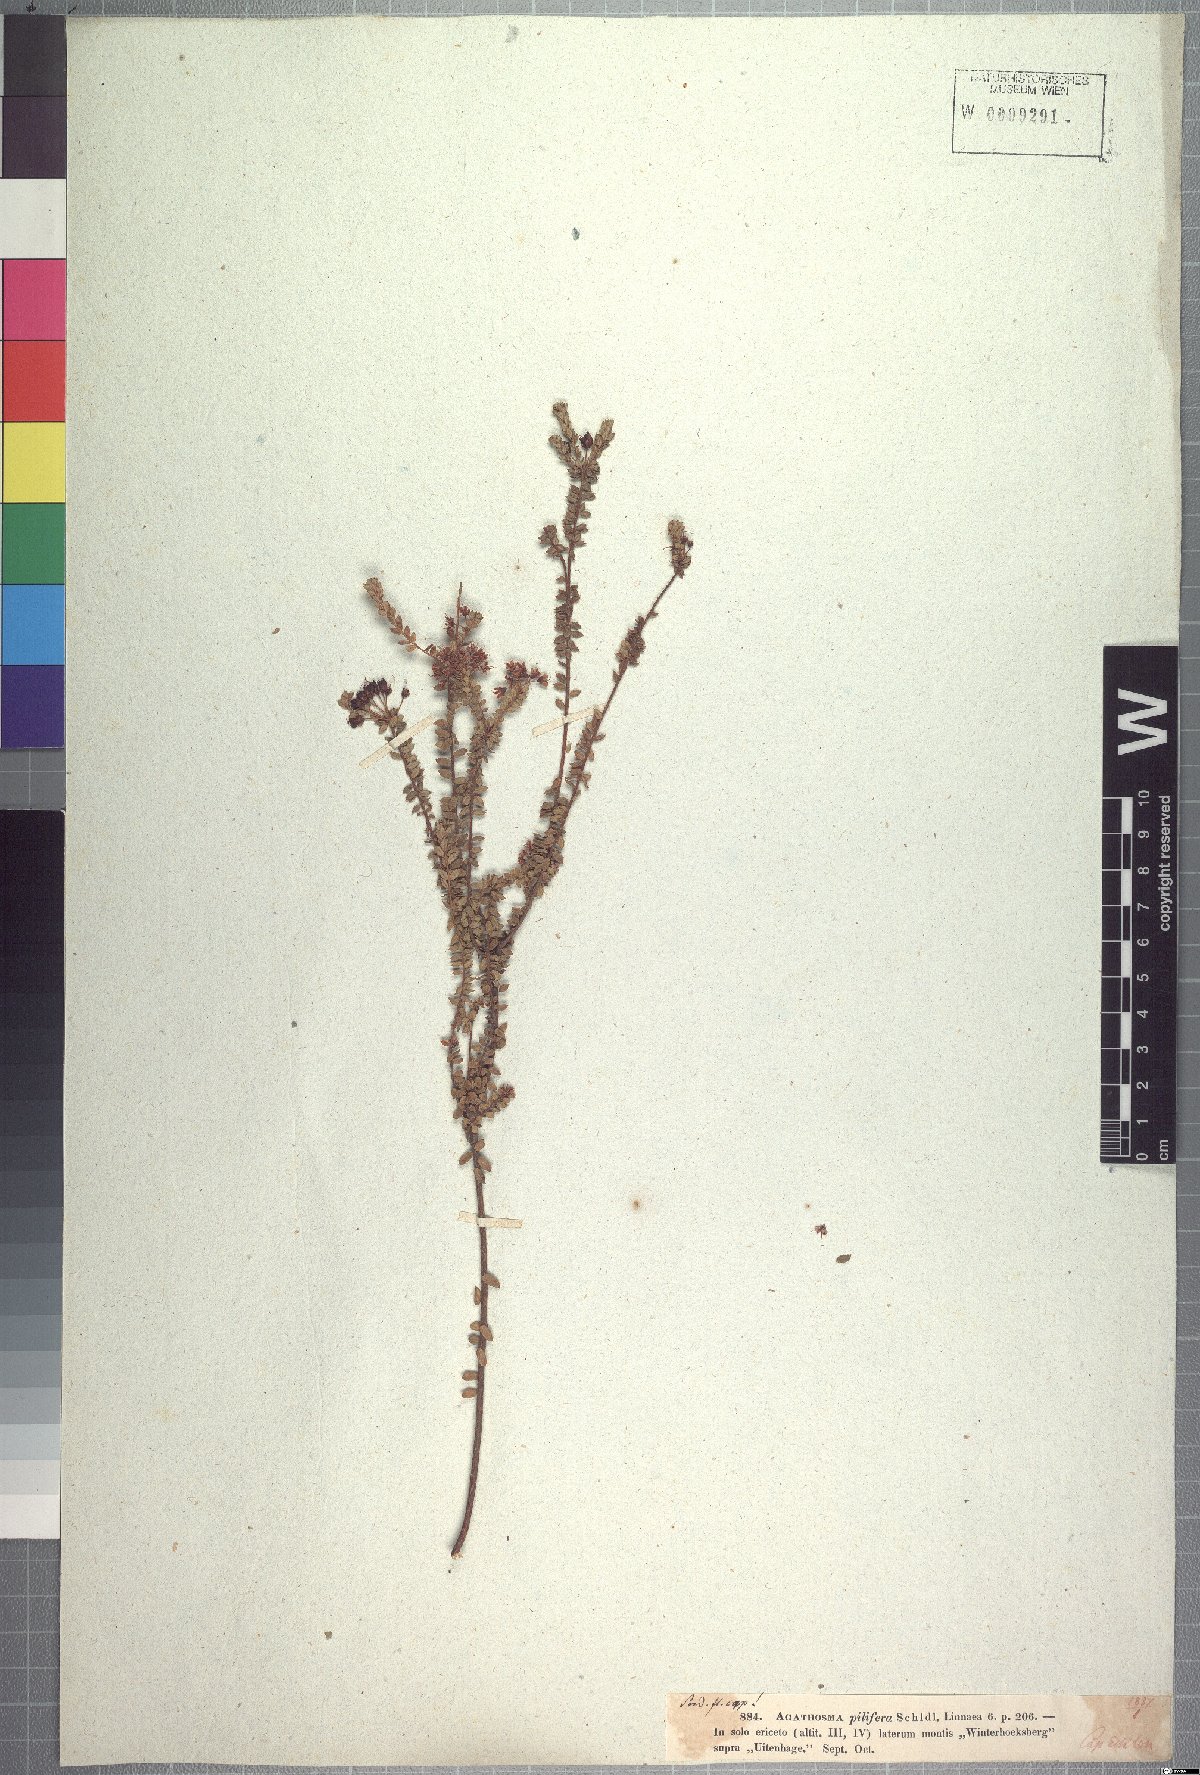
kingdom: Plantae
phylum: Tracheophyta
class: Magnoliopsida
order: Sapindales
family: Rutaceae
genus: Agathosma
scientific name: Agathosma pilifera
